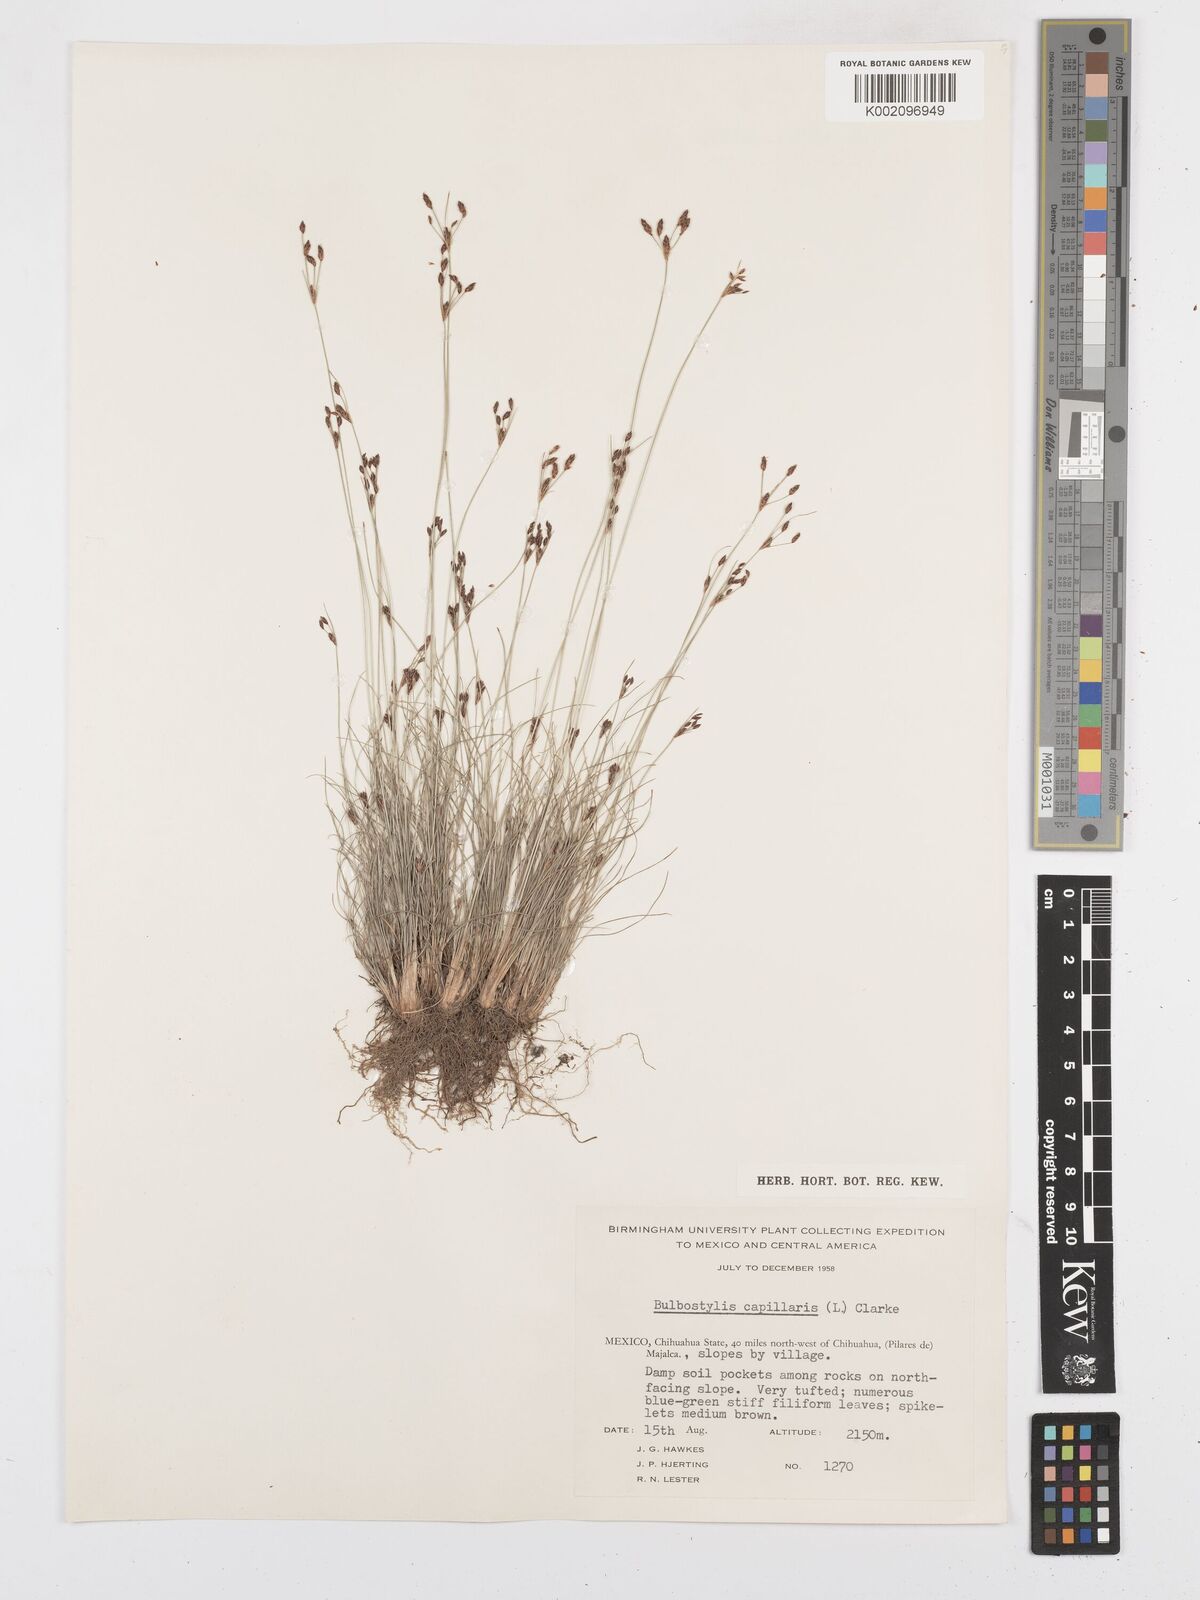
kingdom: Plantae
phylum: Tracheophyta
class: Liliopsida
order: Poales
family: Cyperaceae
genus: Bulbostylis
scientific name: Bulbostylis capillaris
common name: Densetuft hairsedge
